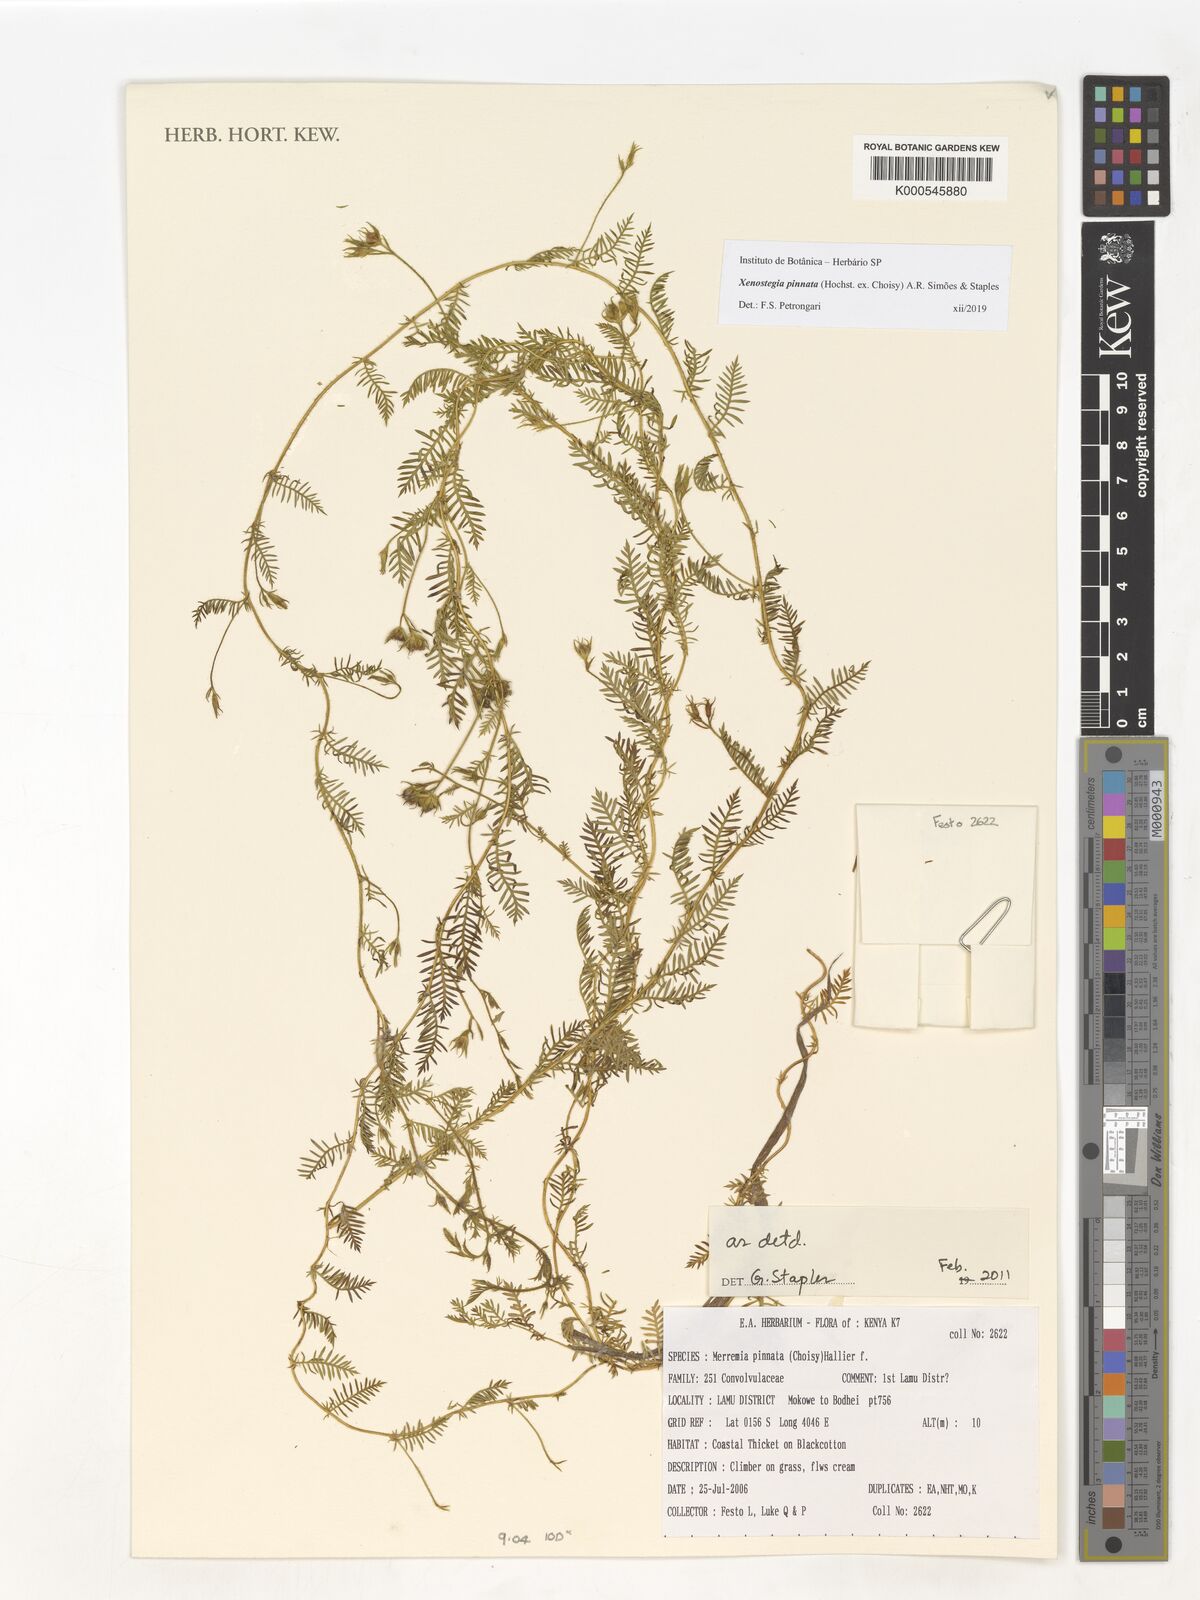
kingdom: Plantae
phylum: Tracheophyta
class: Magnoliopsida
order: Solanales
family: Convolvulaceae
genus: Xenostegia
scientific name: Xenostegia pinnata
